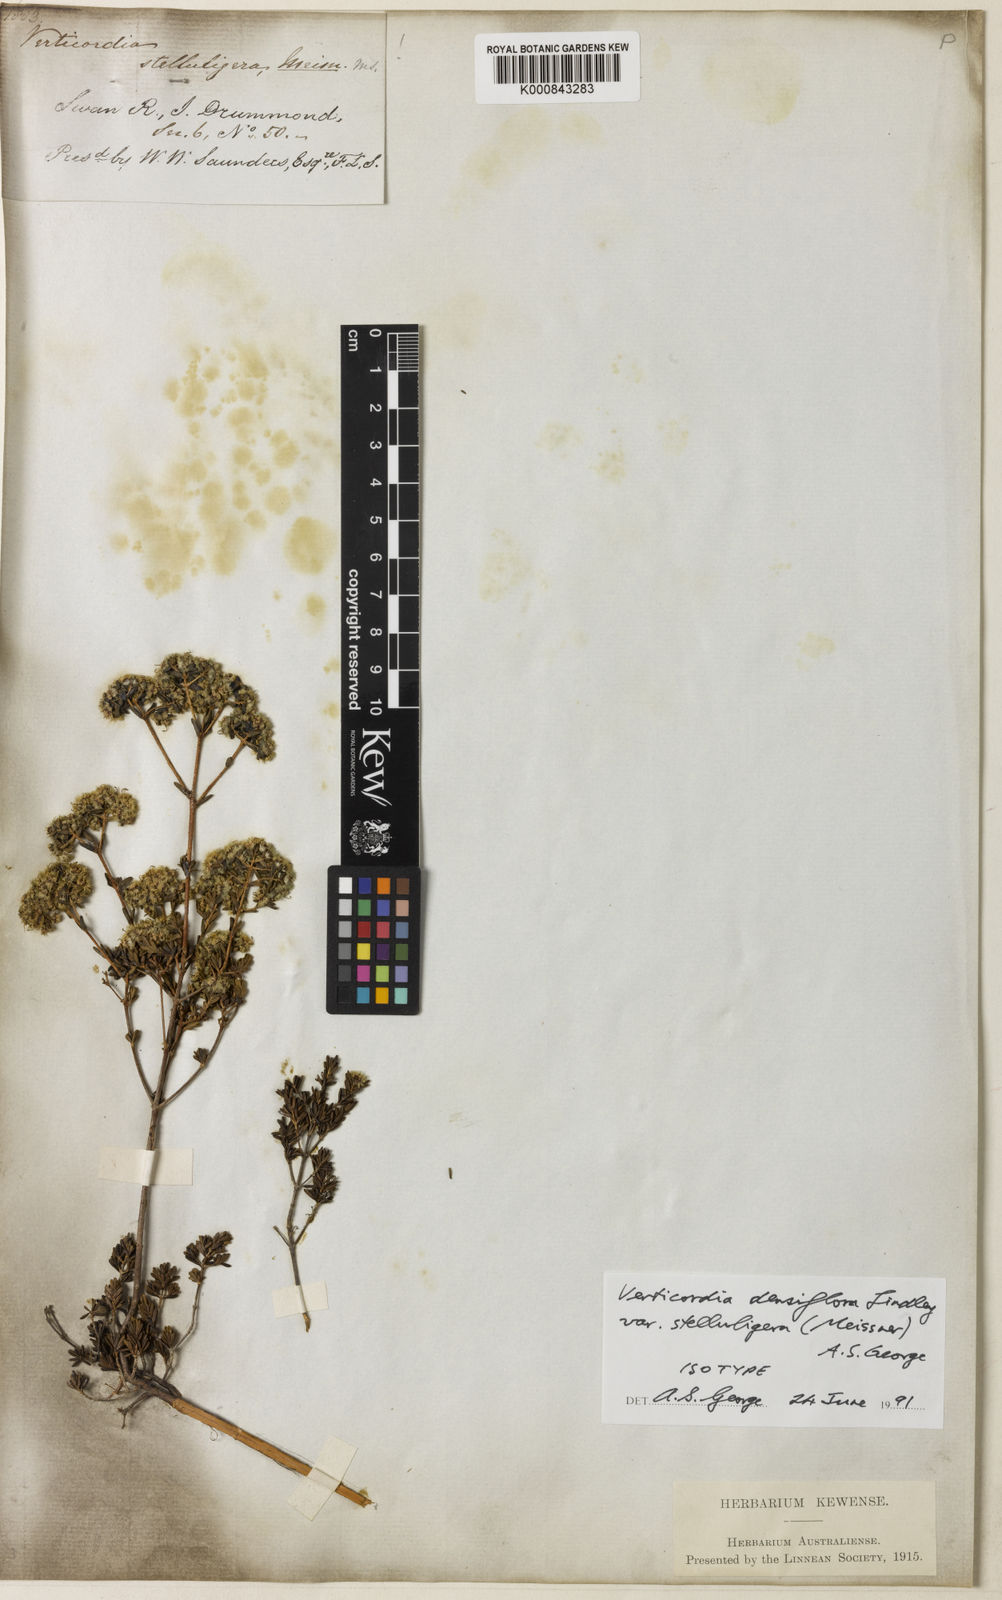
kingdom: Plantae
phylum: Tracheophyta
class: Magnoliopsida
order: Myrtales
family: Myrtaceae
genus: Verticordia
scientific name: Verticordia densiflora
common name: Compact feather-flower
